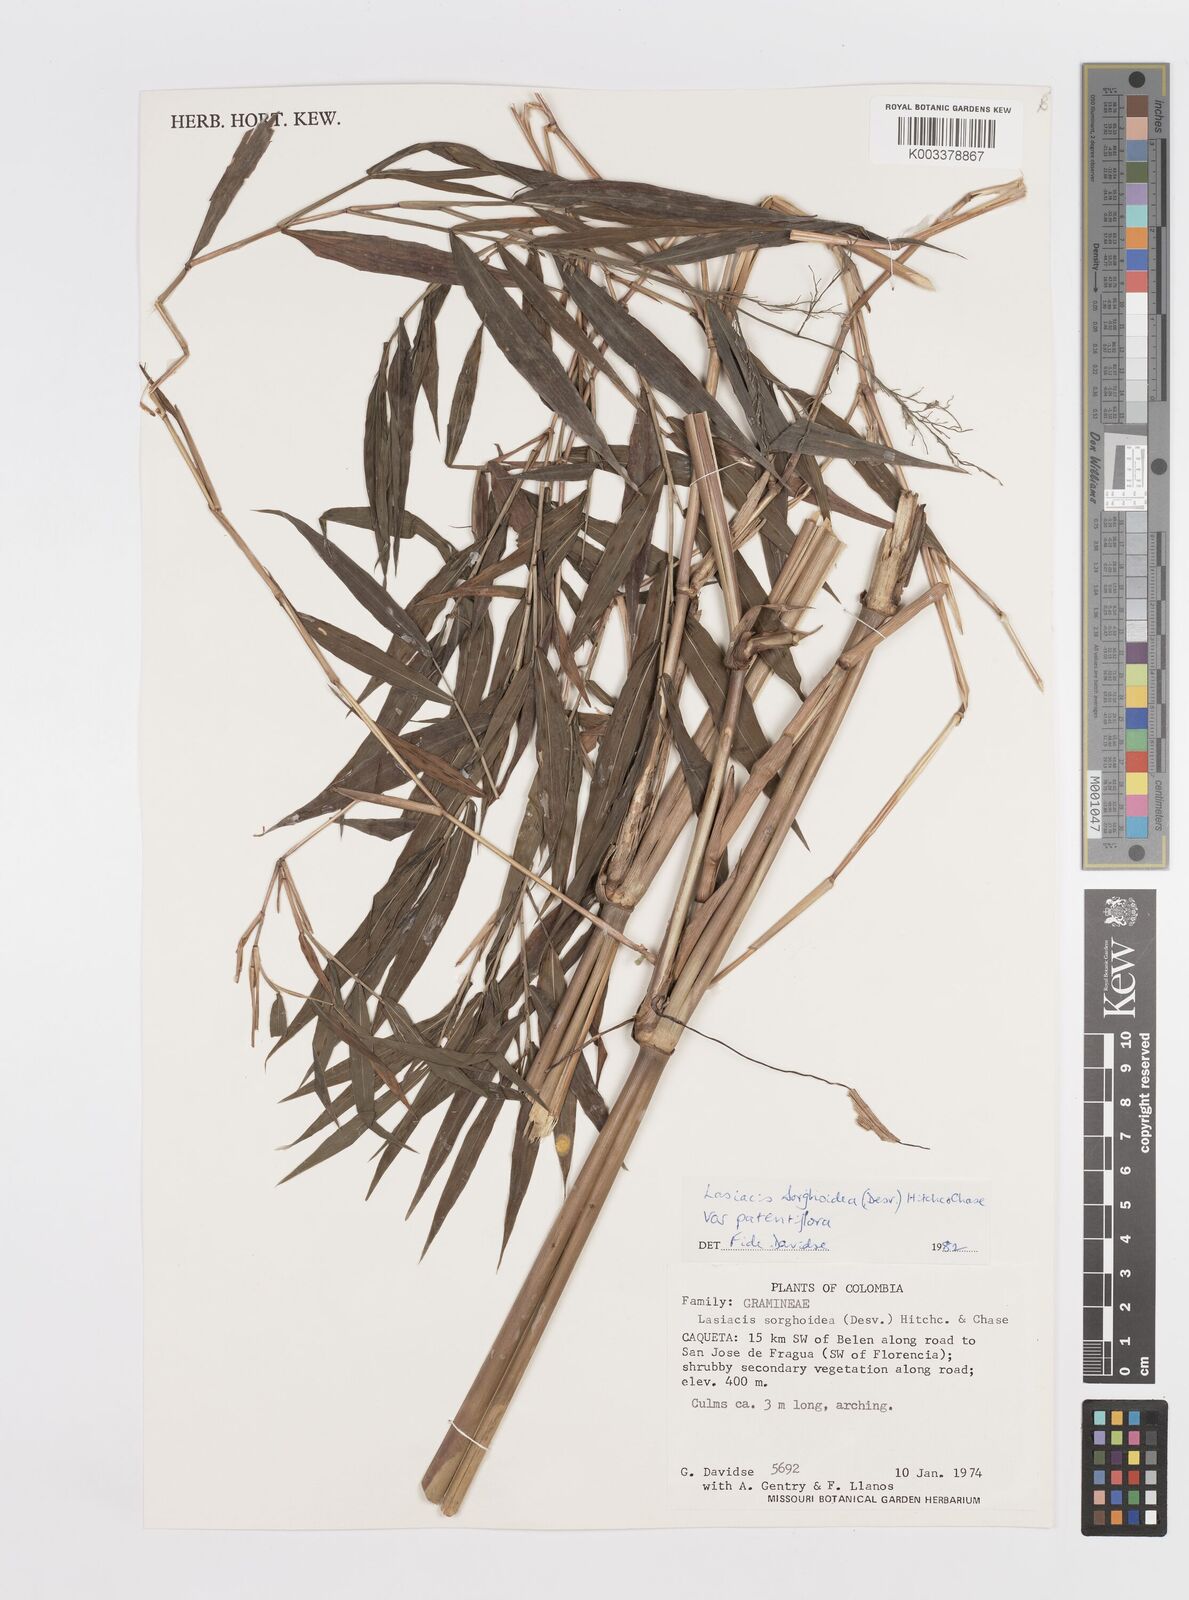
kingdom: Plantae
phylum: Tracheophyta
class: Liliopsida
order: Poales
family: Poaceae
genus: Lasiacis
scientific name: Lasiacis maculata
